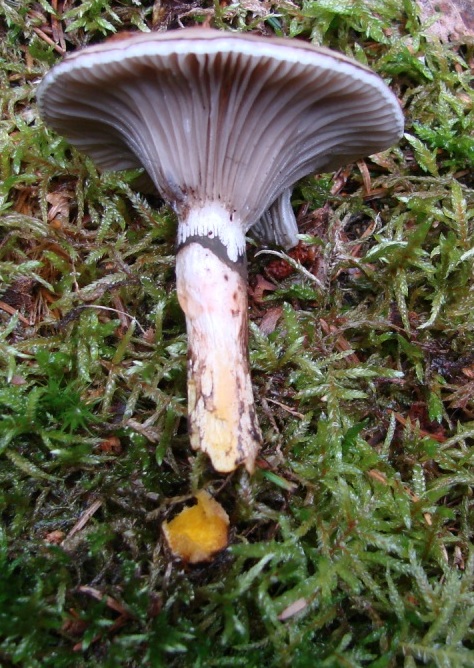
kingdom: Fungi
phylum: Basidiomycota
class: Agaricomycetes
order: Boletales
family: Gomphidiaceae
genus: Gomphidius
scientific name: Gomphidius glutinosus
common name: grå slimslør
